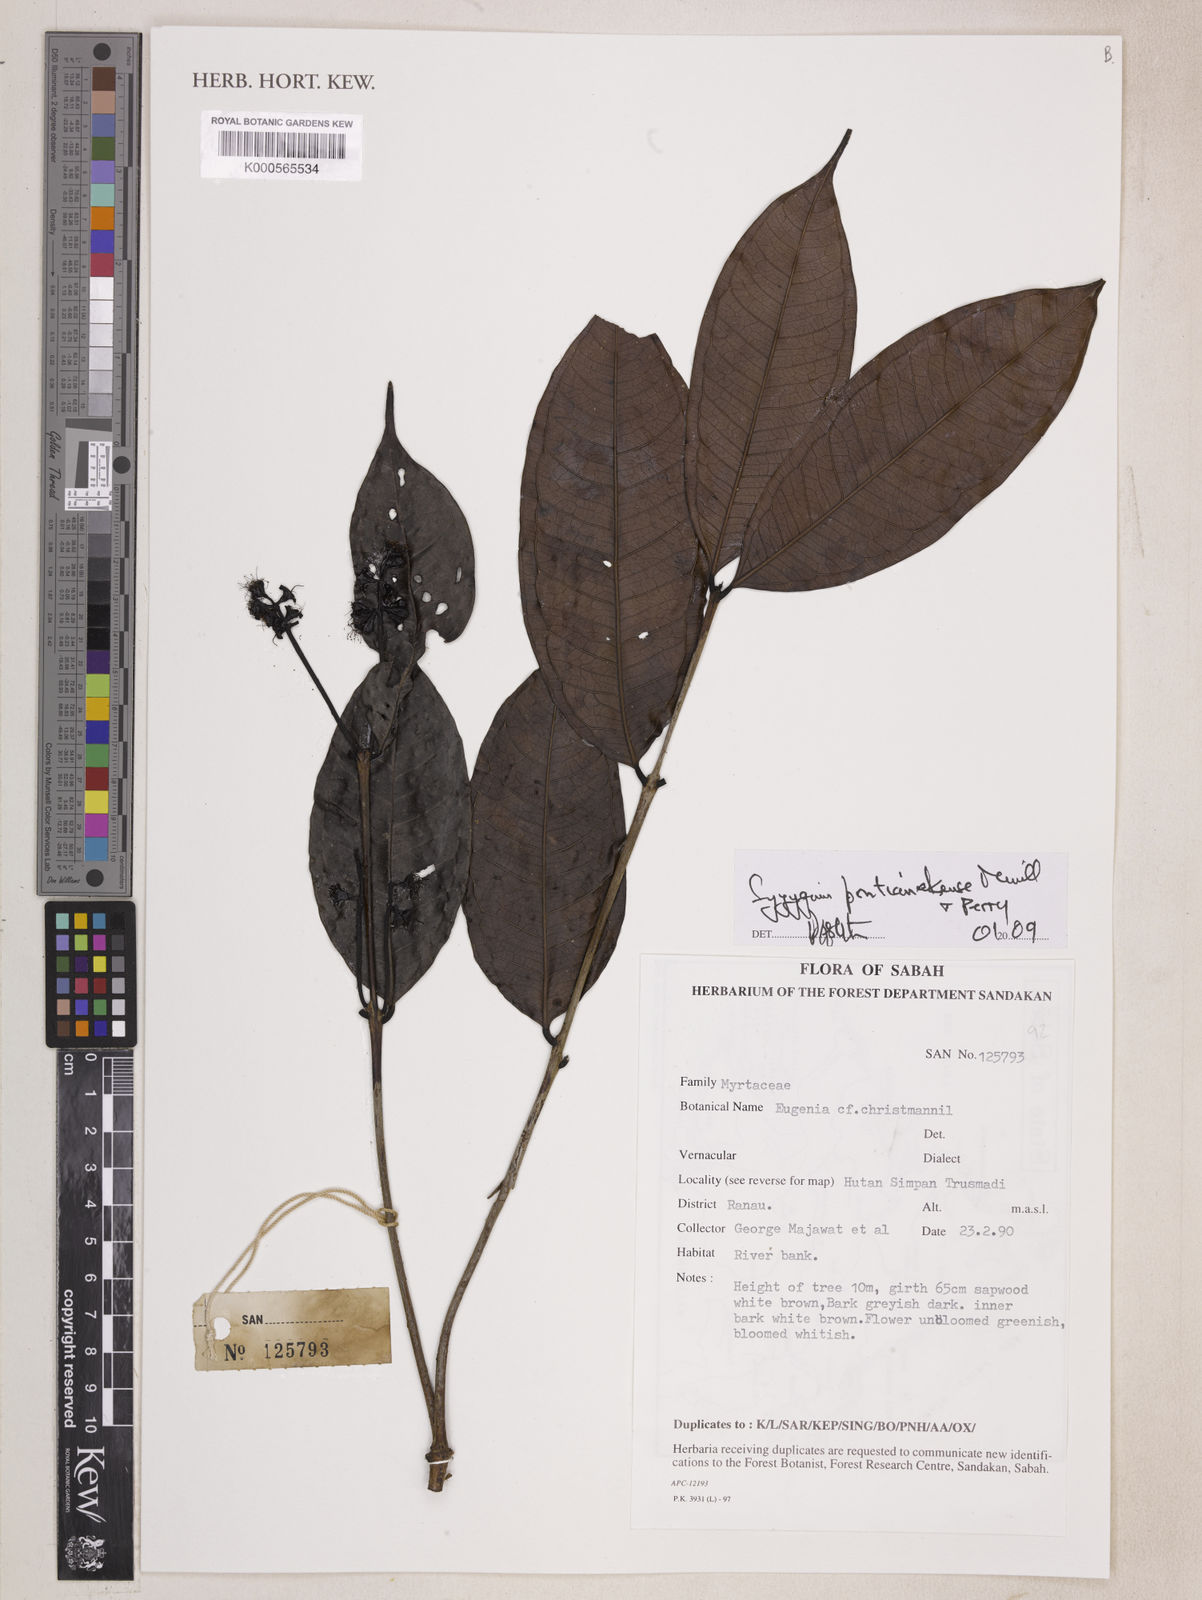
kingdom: Plantae
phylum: Tracheophyta
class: Magnoliopsida
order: Myrtales
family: Myrtaceae
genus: Syzygium
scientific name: Syzygium pontianakense
